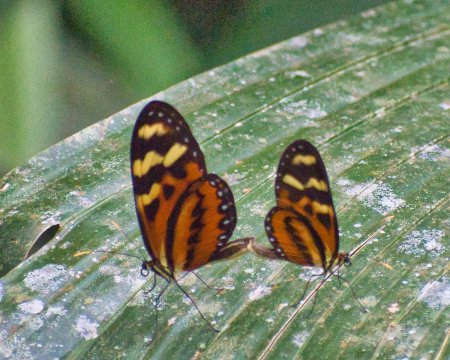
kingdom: Animalia
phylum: Arthropoda
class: Insecta
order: Lepidoptera
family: Nymphalidae
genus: Mechanitis
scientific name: Mechanitis menapis
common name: Menapis Tigerwing
